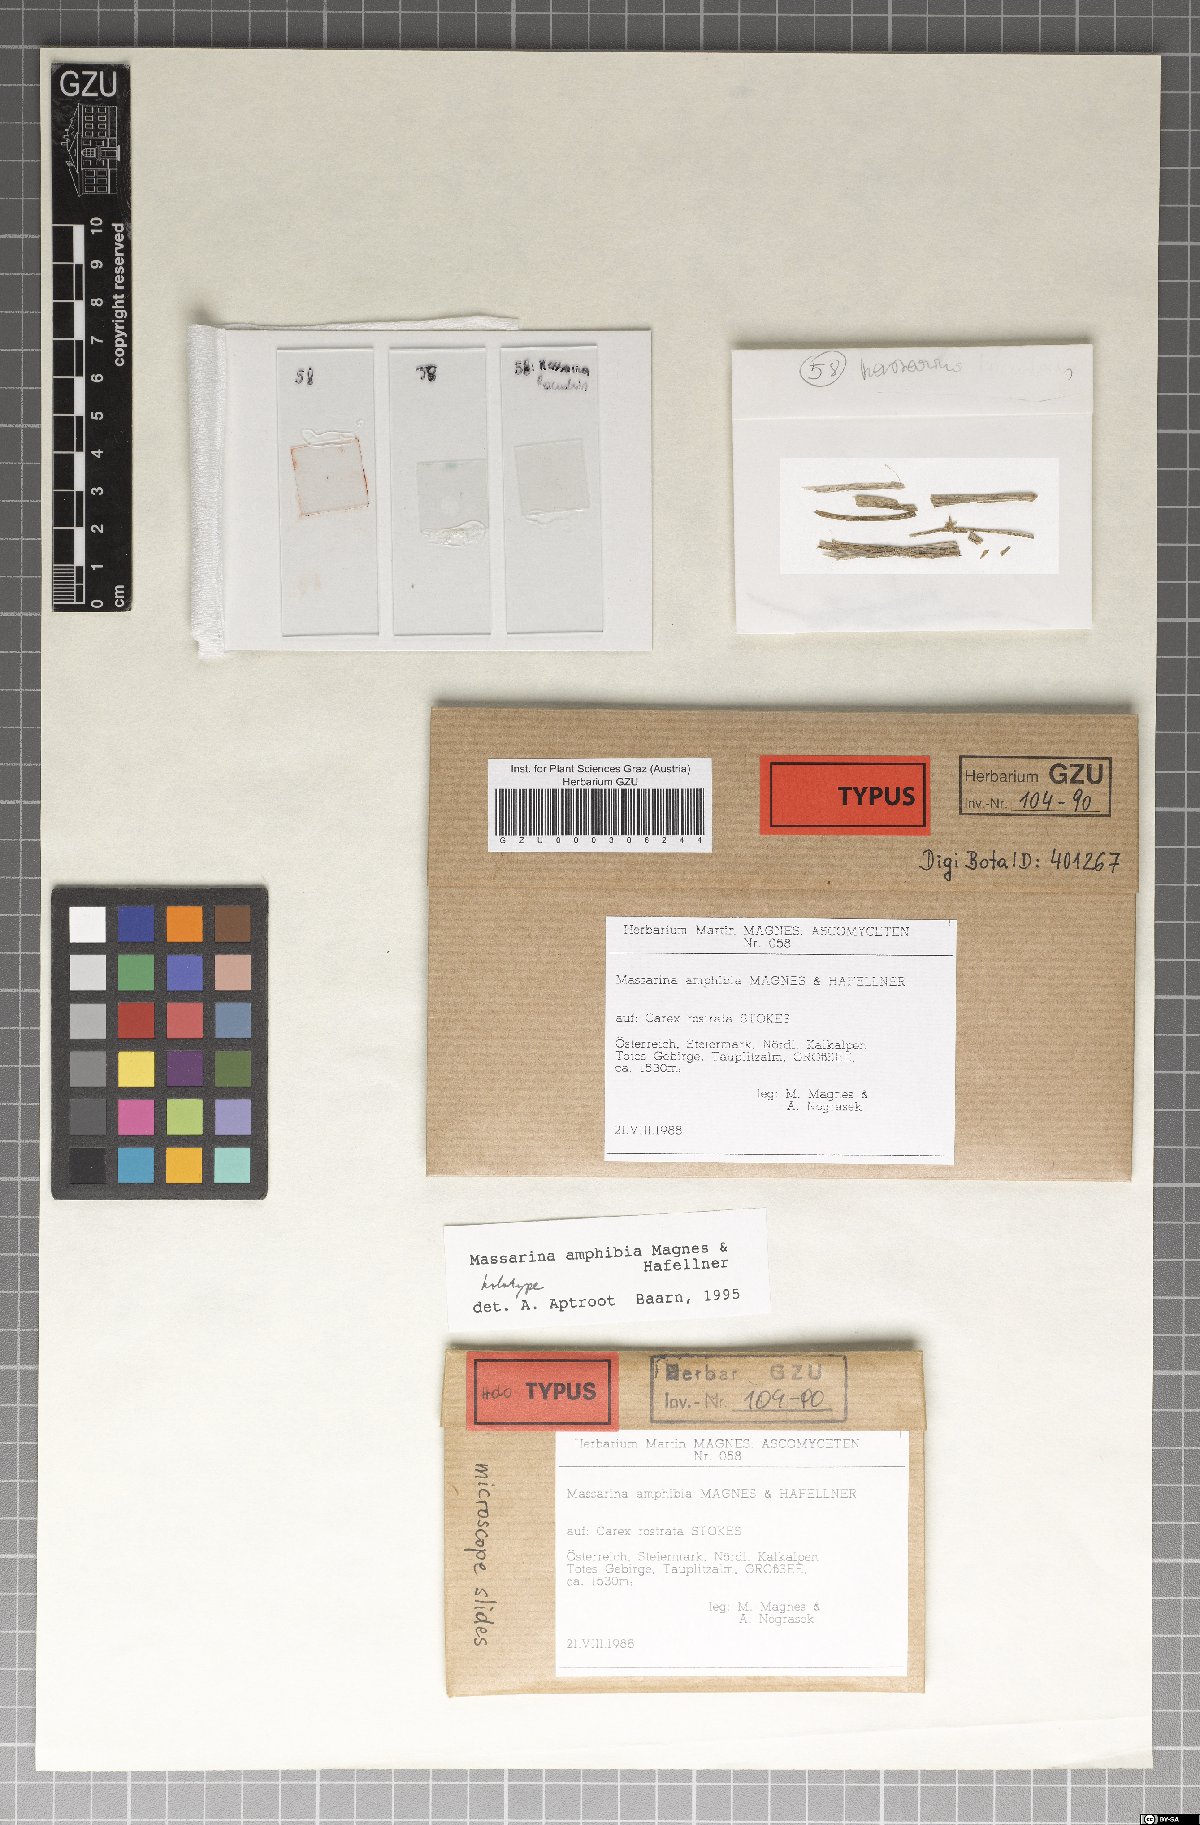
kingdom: Fungi
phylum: Ascomycota
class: Dothideomycetes
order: Pleosporales
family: Lophiostomataceae
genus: Lophiostoma
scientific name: Lophiostoma amphibium
